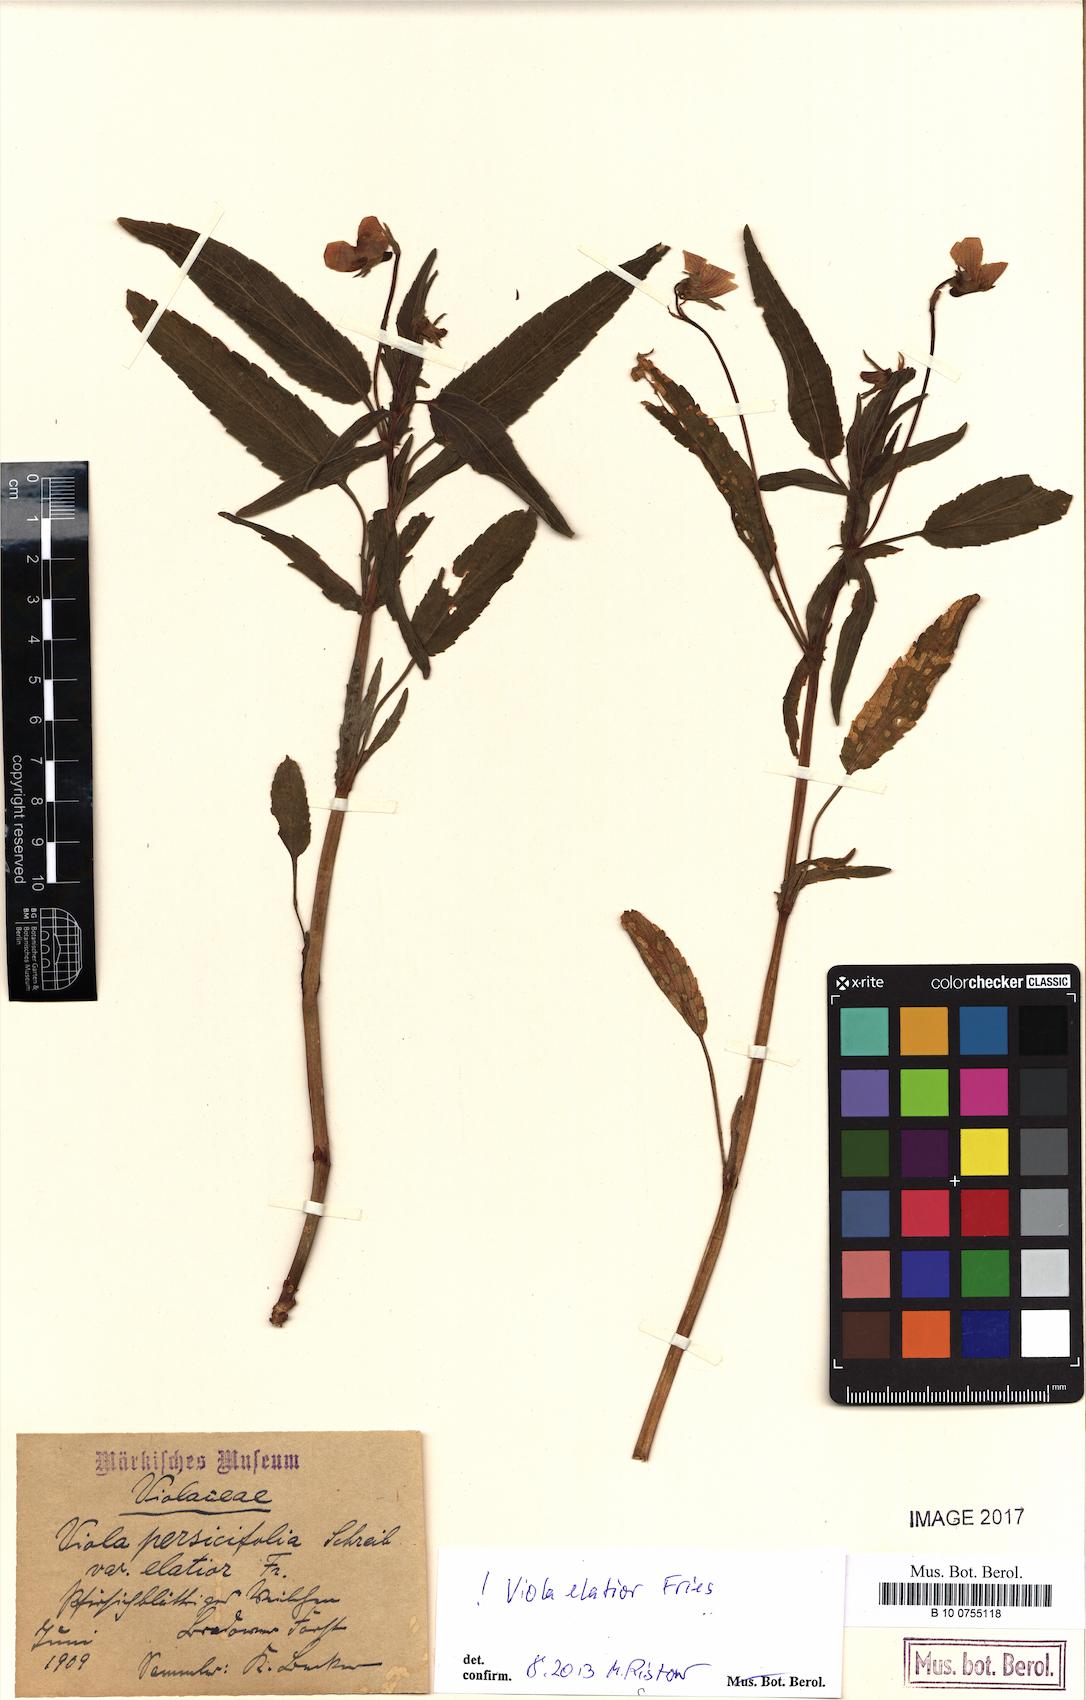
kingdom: Plantae
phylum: Tracheophyta
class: Magnoliopsida
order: Malpighiales
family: Violaceae
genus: Viola
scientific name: Viola elatior
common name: Tall violet
